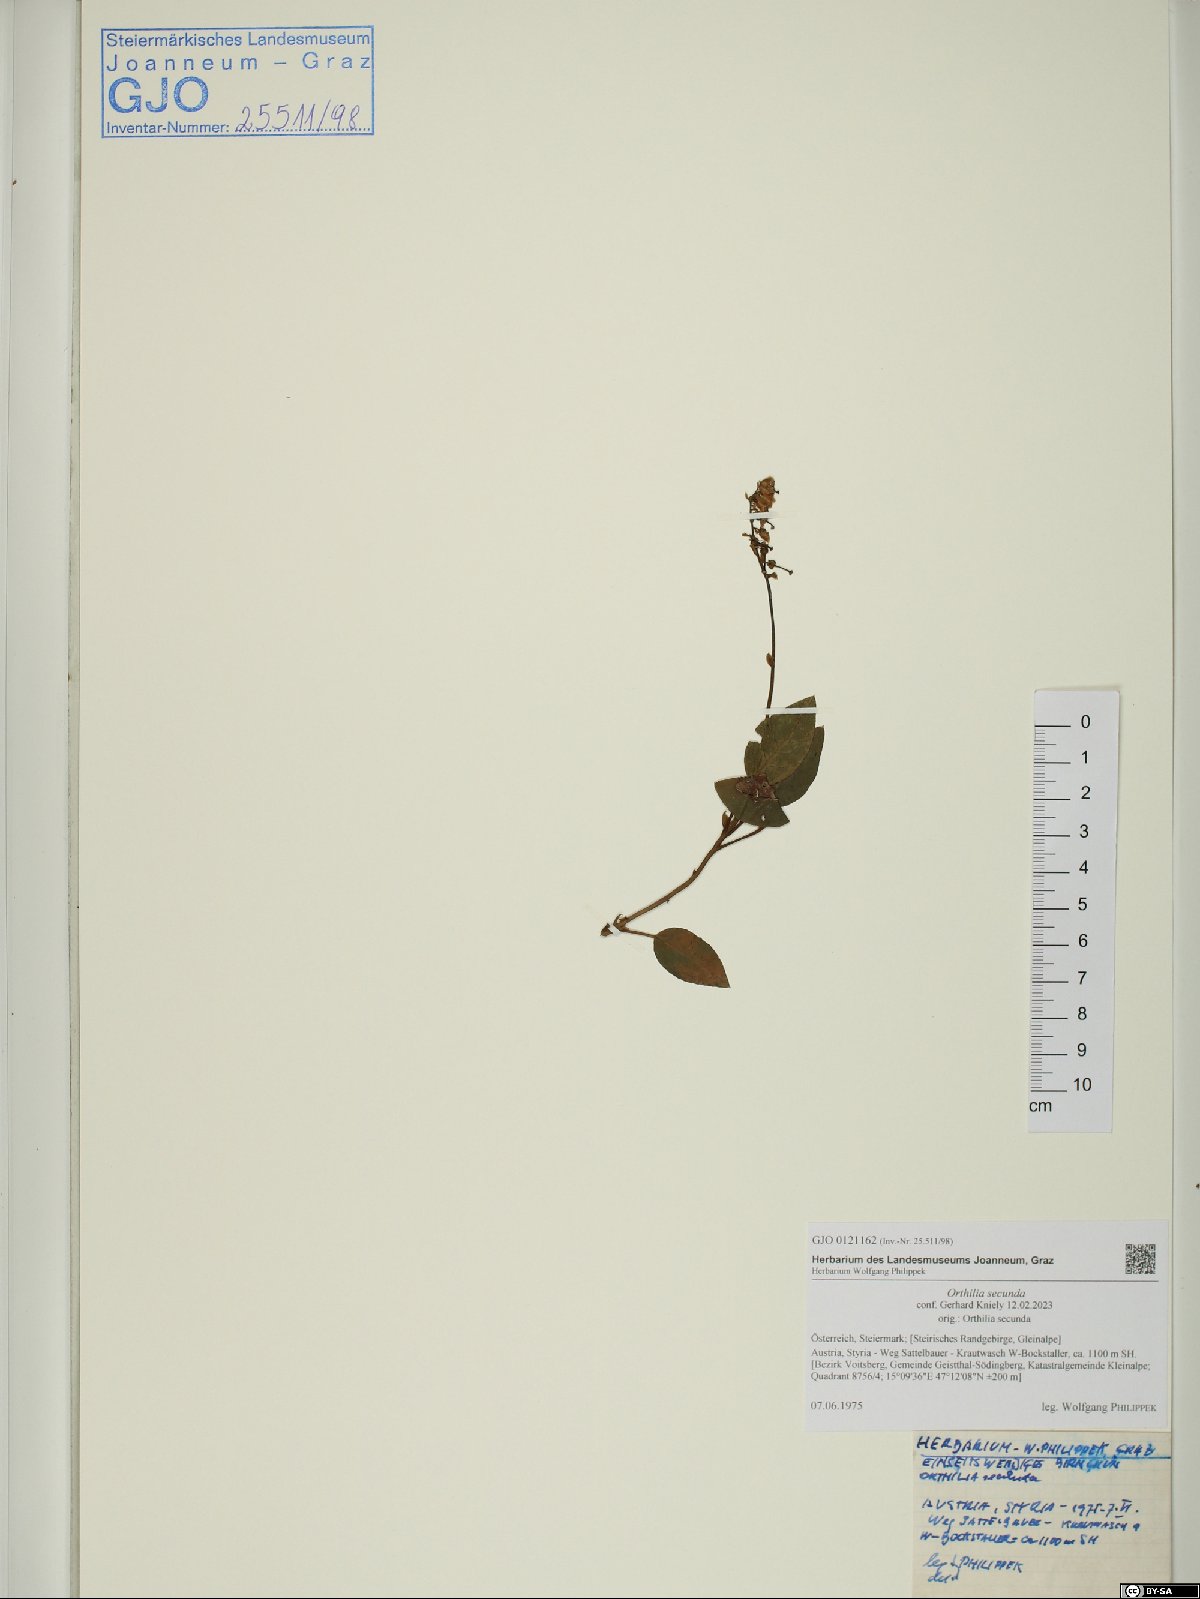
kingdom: Plantae
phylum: Tracheophyta
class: Magnoliopsida
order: Ericales
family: Ericaceae
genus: Orthilia
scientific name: Orthilia secunda
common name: One-sided orthilia
